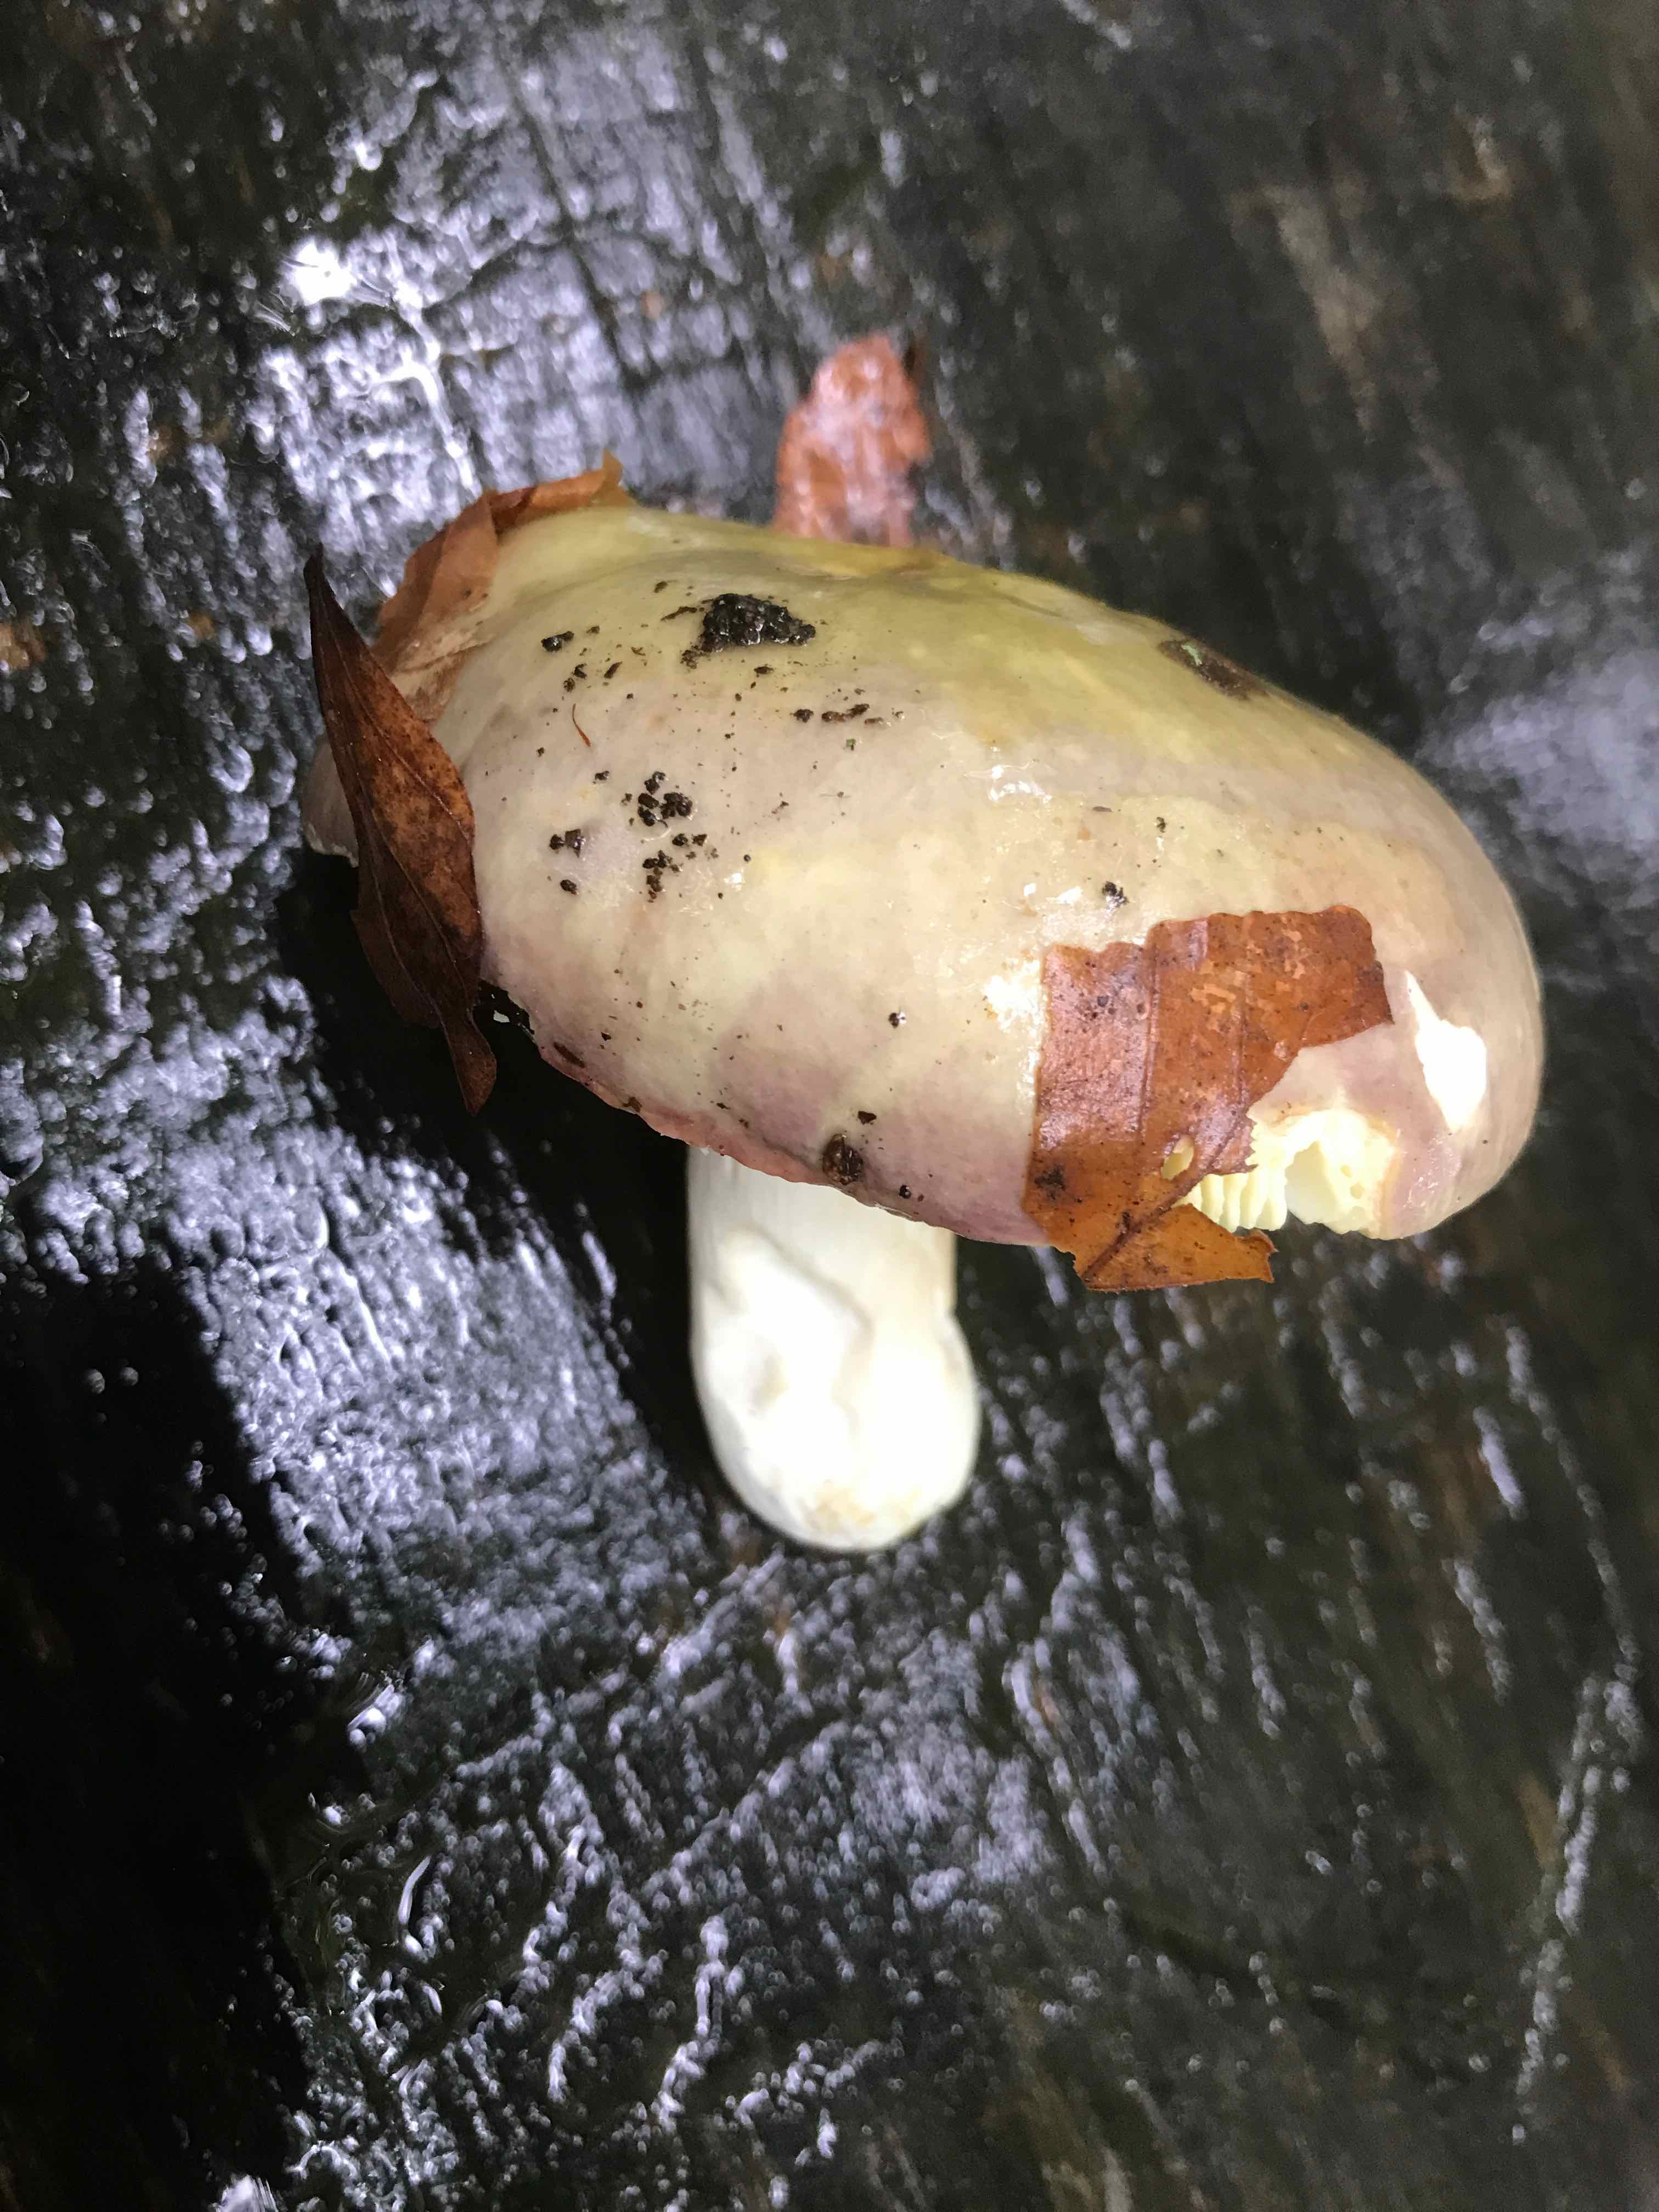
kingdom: Fungi
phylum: Basidiomycota
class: Agaricomycetes
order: Russulales
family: Russulaceae
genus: Russula
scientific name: Russula
